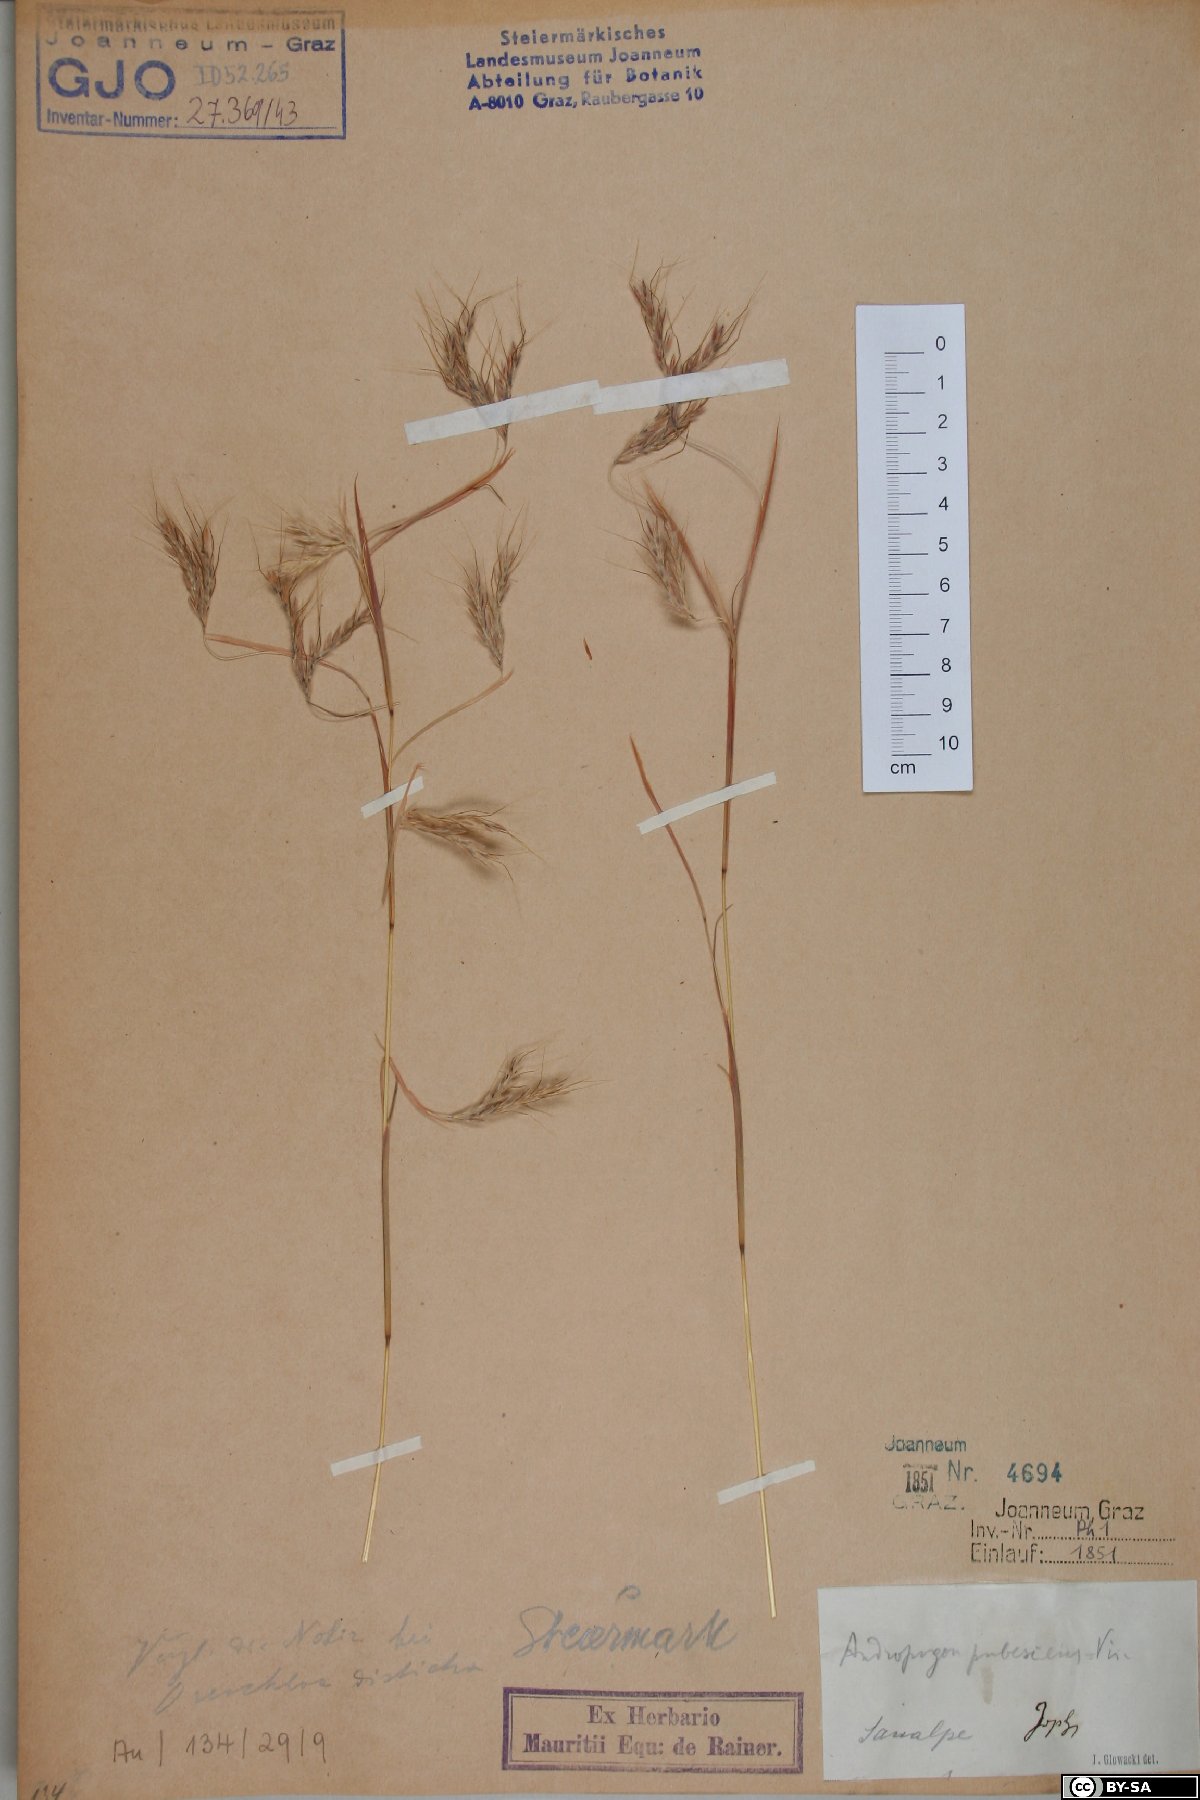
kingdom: Plantae
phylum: Tracheophyta
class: Liliopsida
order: Poales
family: Poaceae
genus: Hyparrhenia
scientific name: Hyparrhenia hirta
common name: Thatching grass
